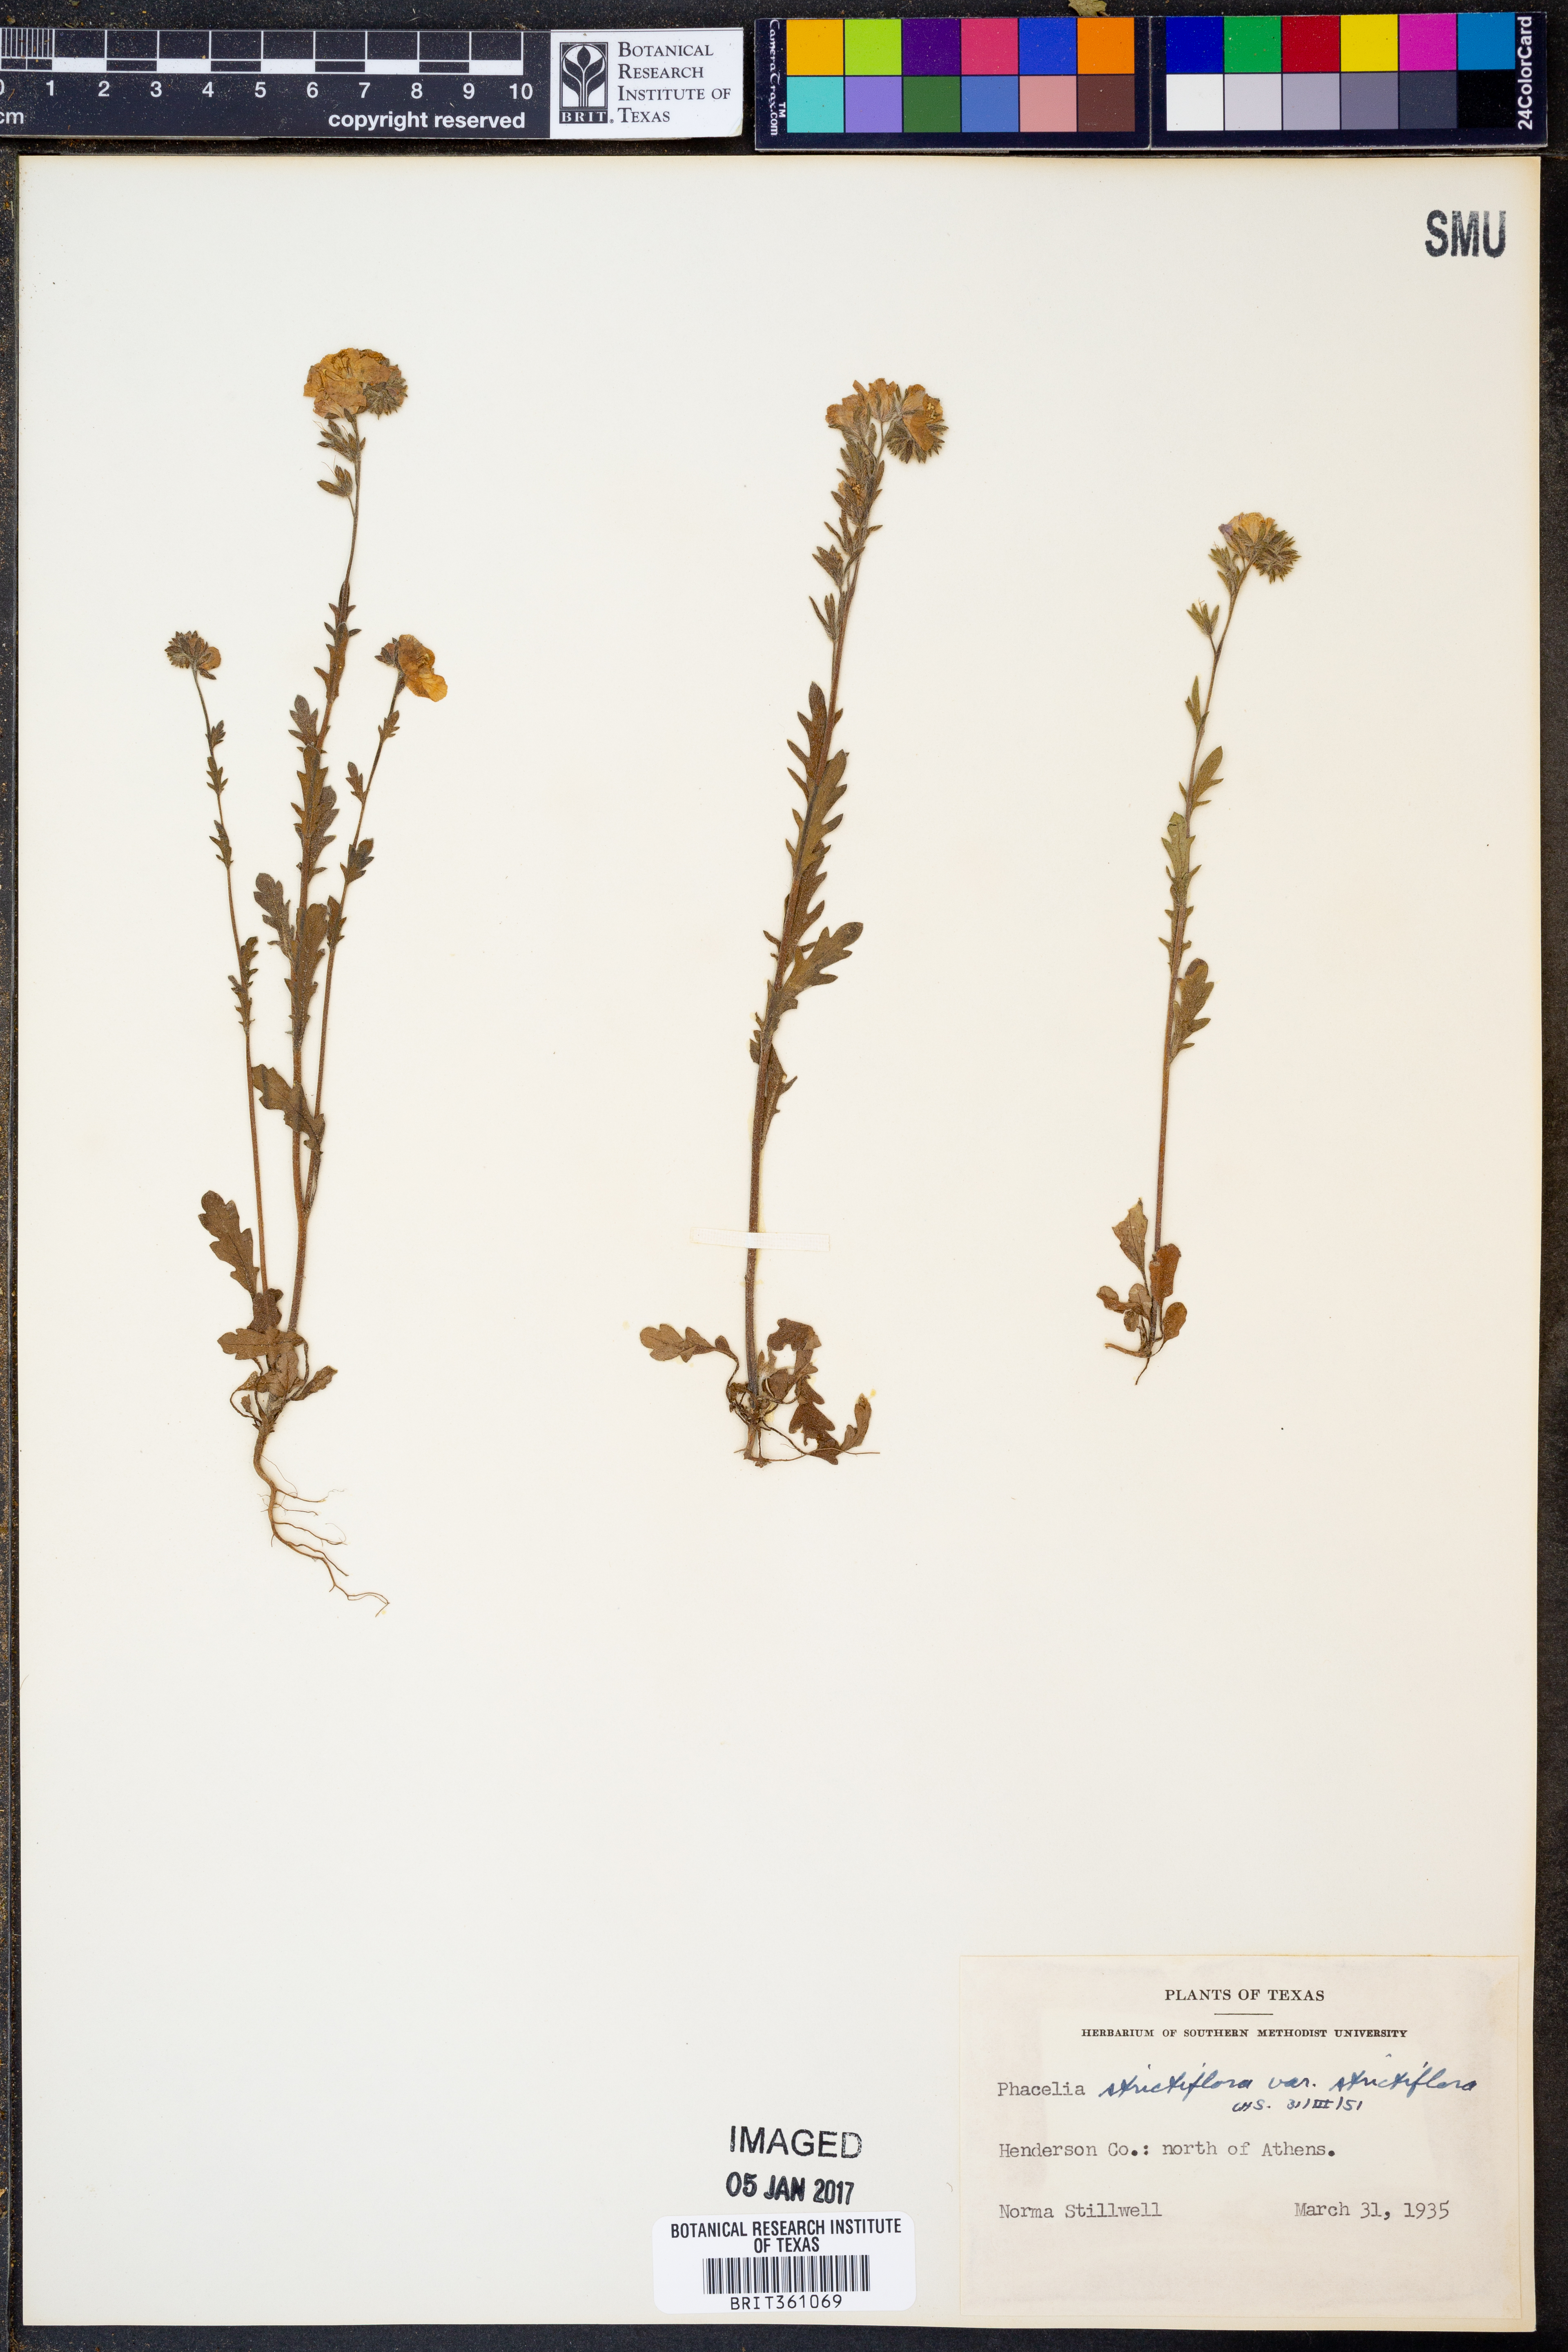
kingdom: Plantae
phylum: Tracheophyta
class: Magnoliopsida
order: Boraginales
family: Hydrophyllaceae
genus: Phacelia
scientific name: Phacelia strictiflora
